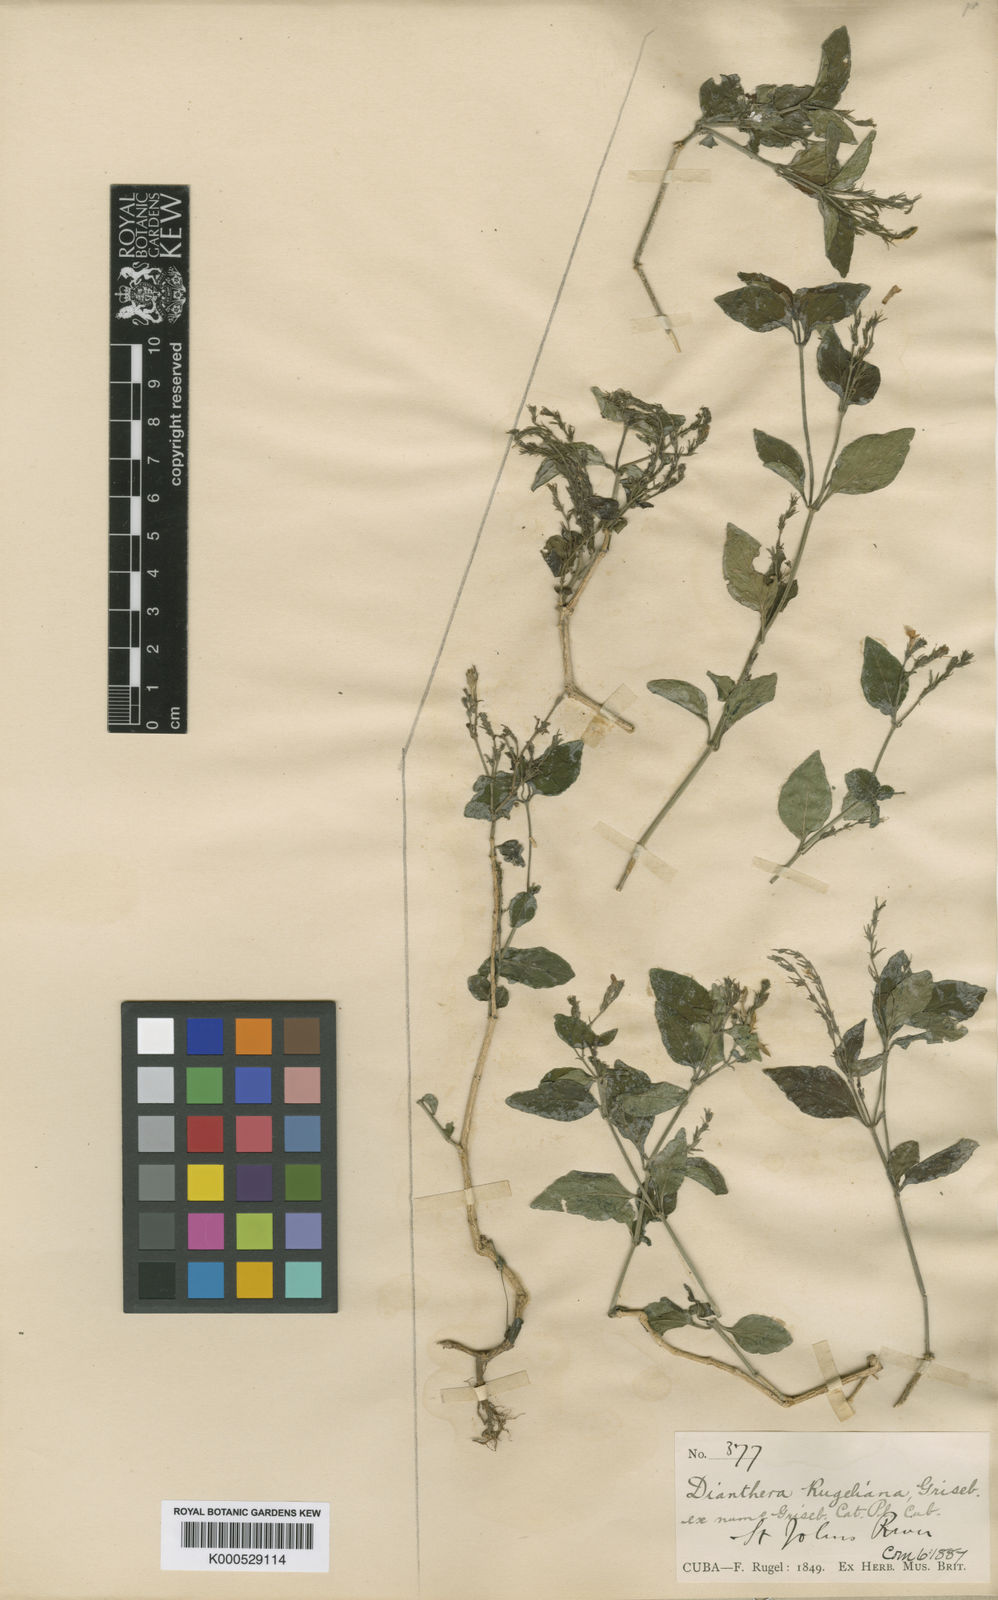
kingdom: Plantae
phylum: Tracheophyta
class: Magnoliopsida
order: Lamiales
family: Acanthaceae
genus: Dianthera
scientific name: Dianthera rugeliana
